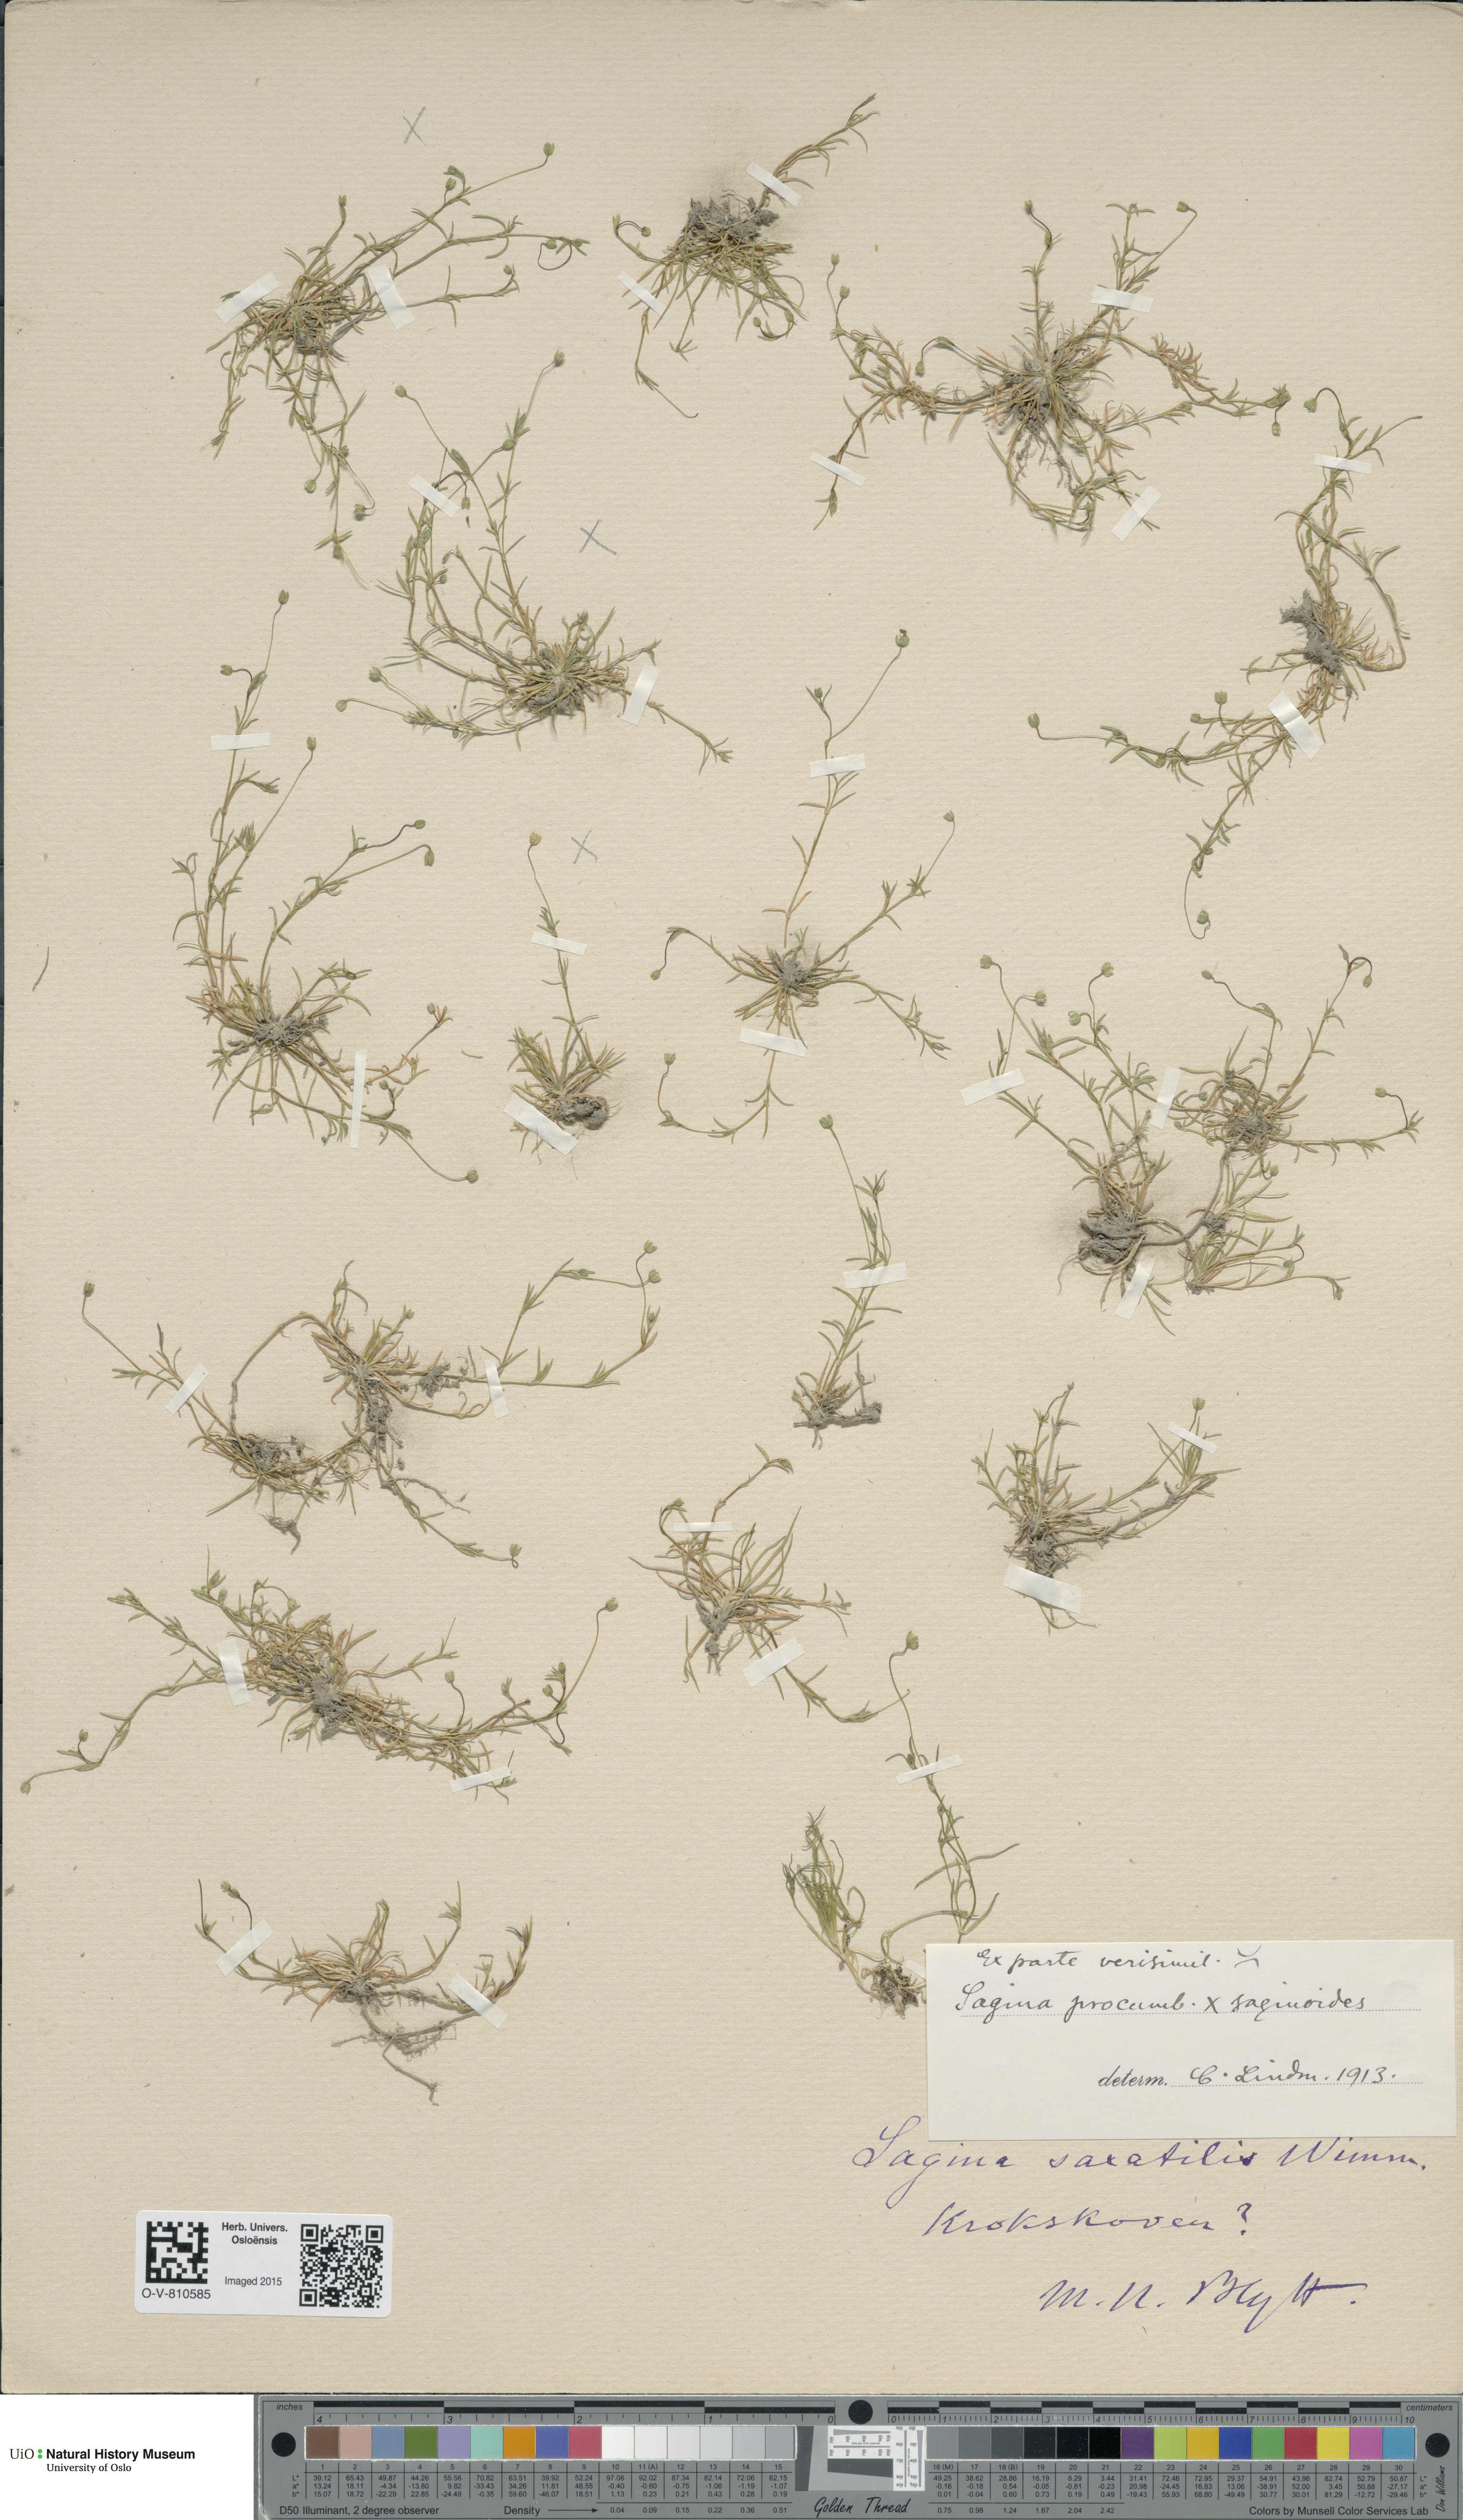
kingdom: Plantae
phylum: Tracheophyta
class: Magnoliopsida
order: Caryophyllales
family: Caryophyllaceae
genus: Sagina
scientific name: Sagina
